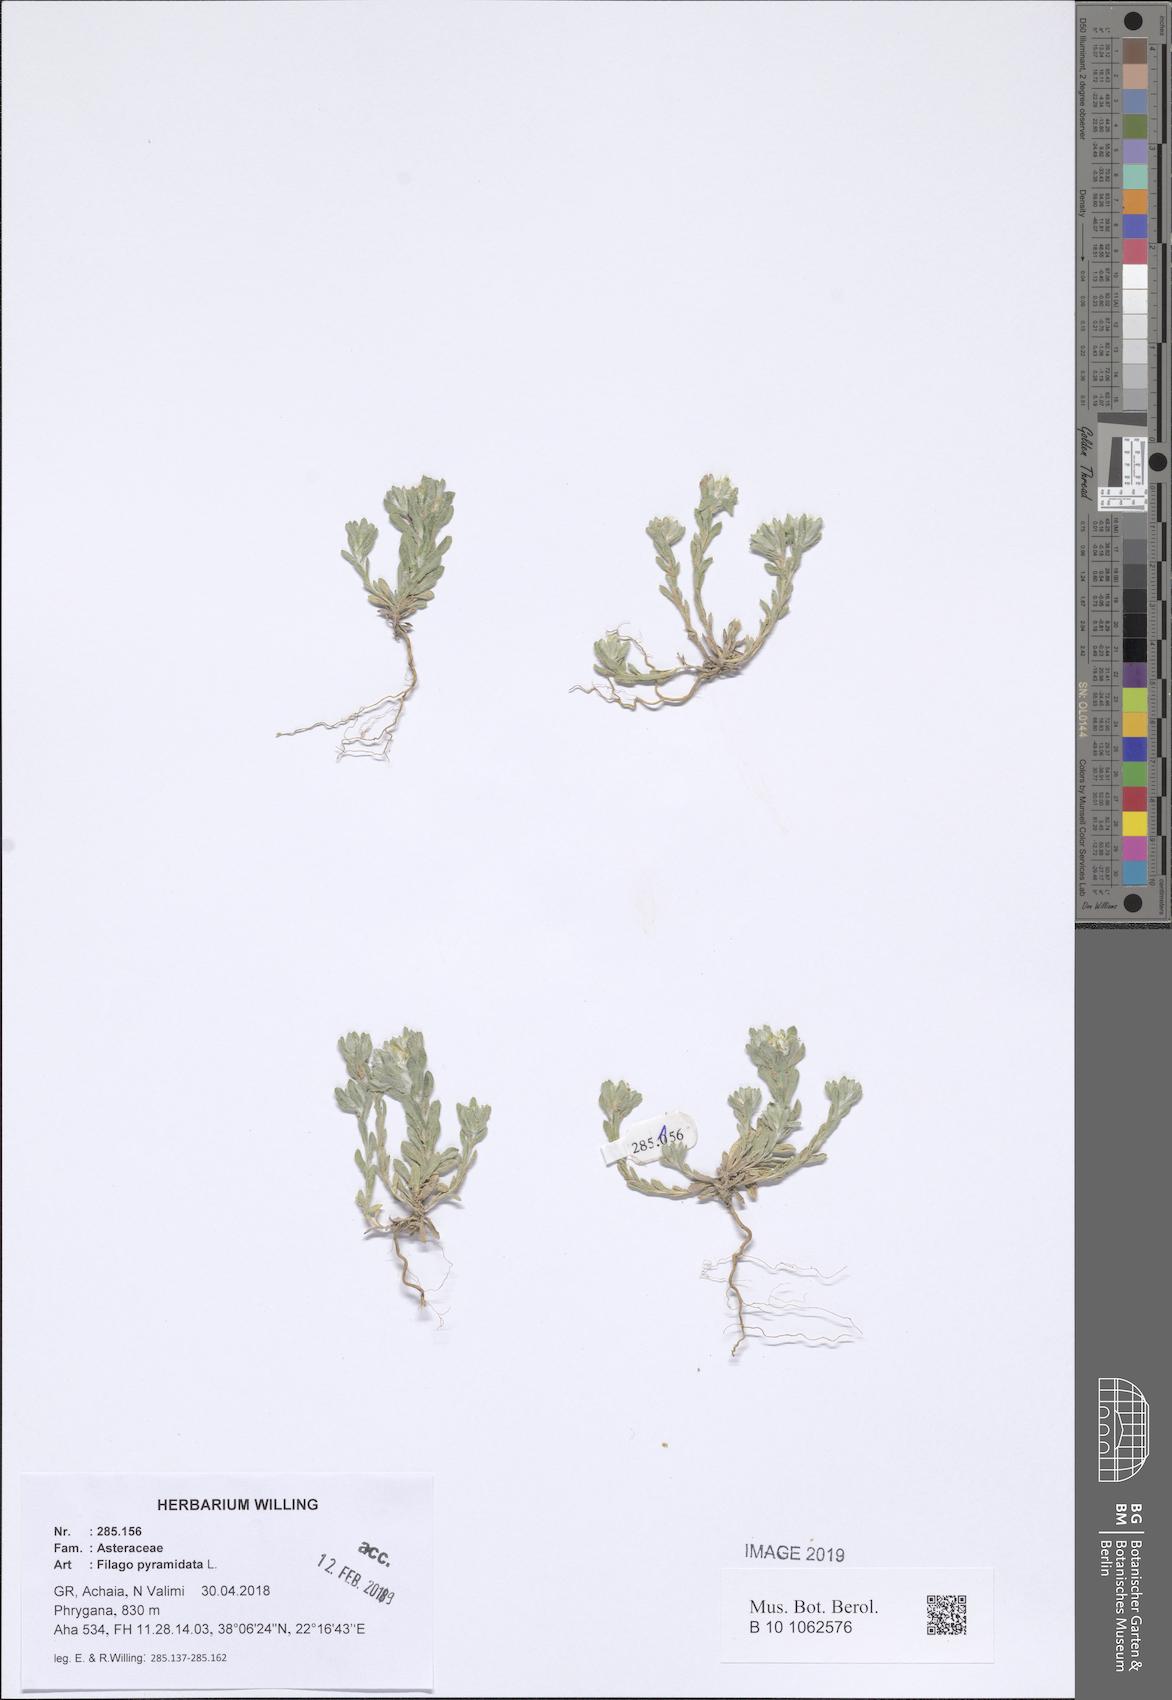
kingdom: Plantae
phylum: Tracheophyta
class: Magnoliopsida
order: Asterales
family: Asteraceae
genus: Filago
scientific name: Filago pyramidata
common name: Broad-leaved cudweed
